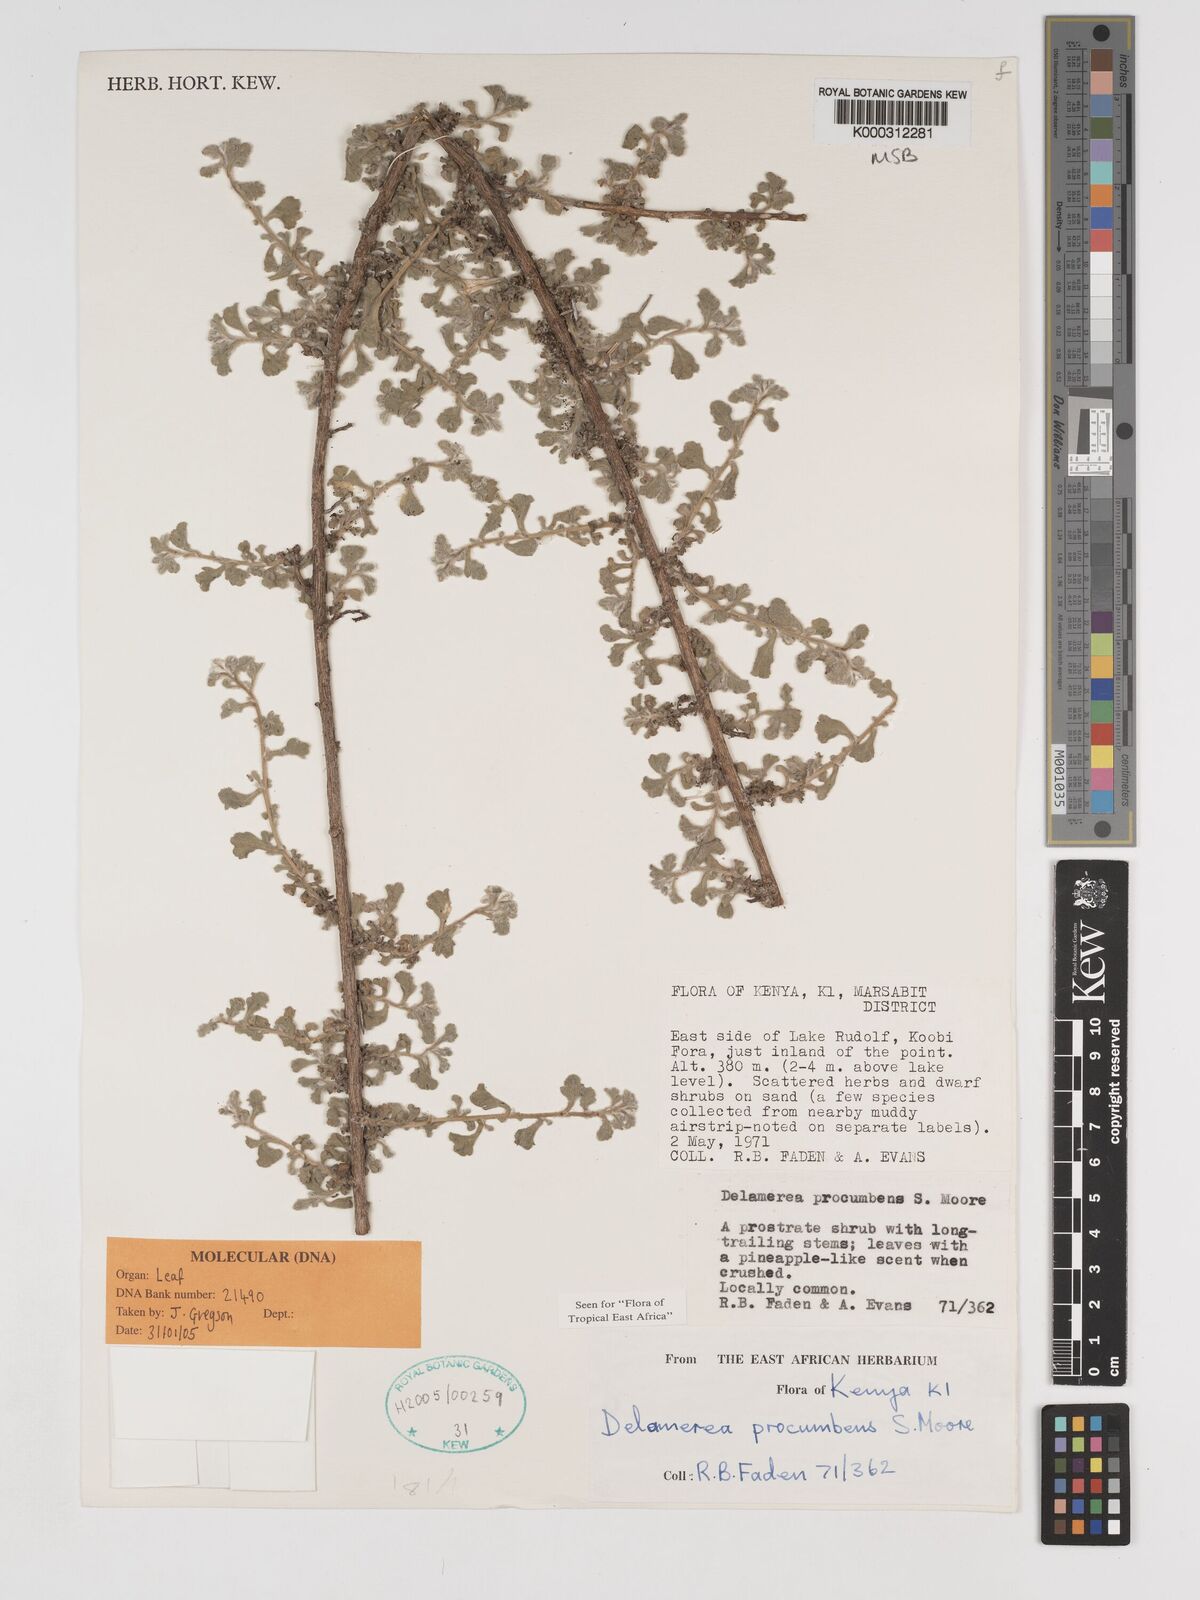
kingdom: Plantae
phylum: Tracheophyta
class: Magnoliopsida
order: Asterales
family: Asteraceae
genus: Delamerea
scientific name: Delamerea procumbens
